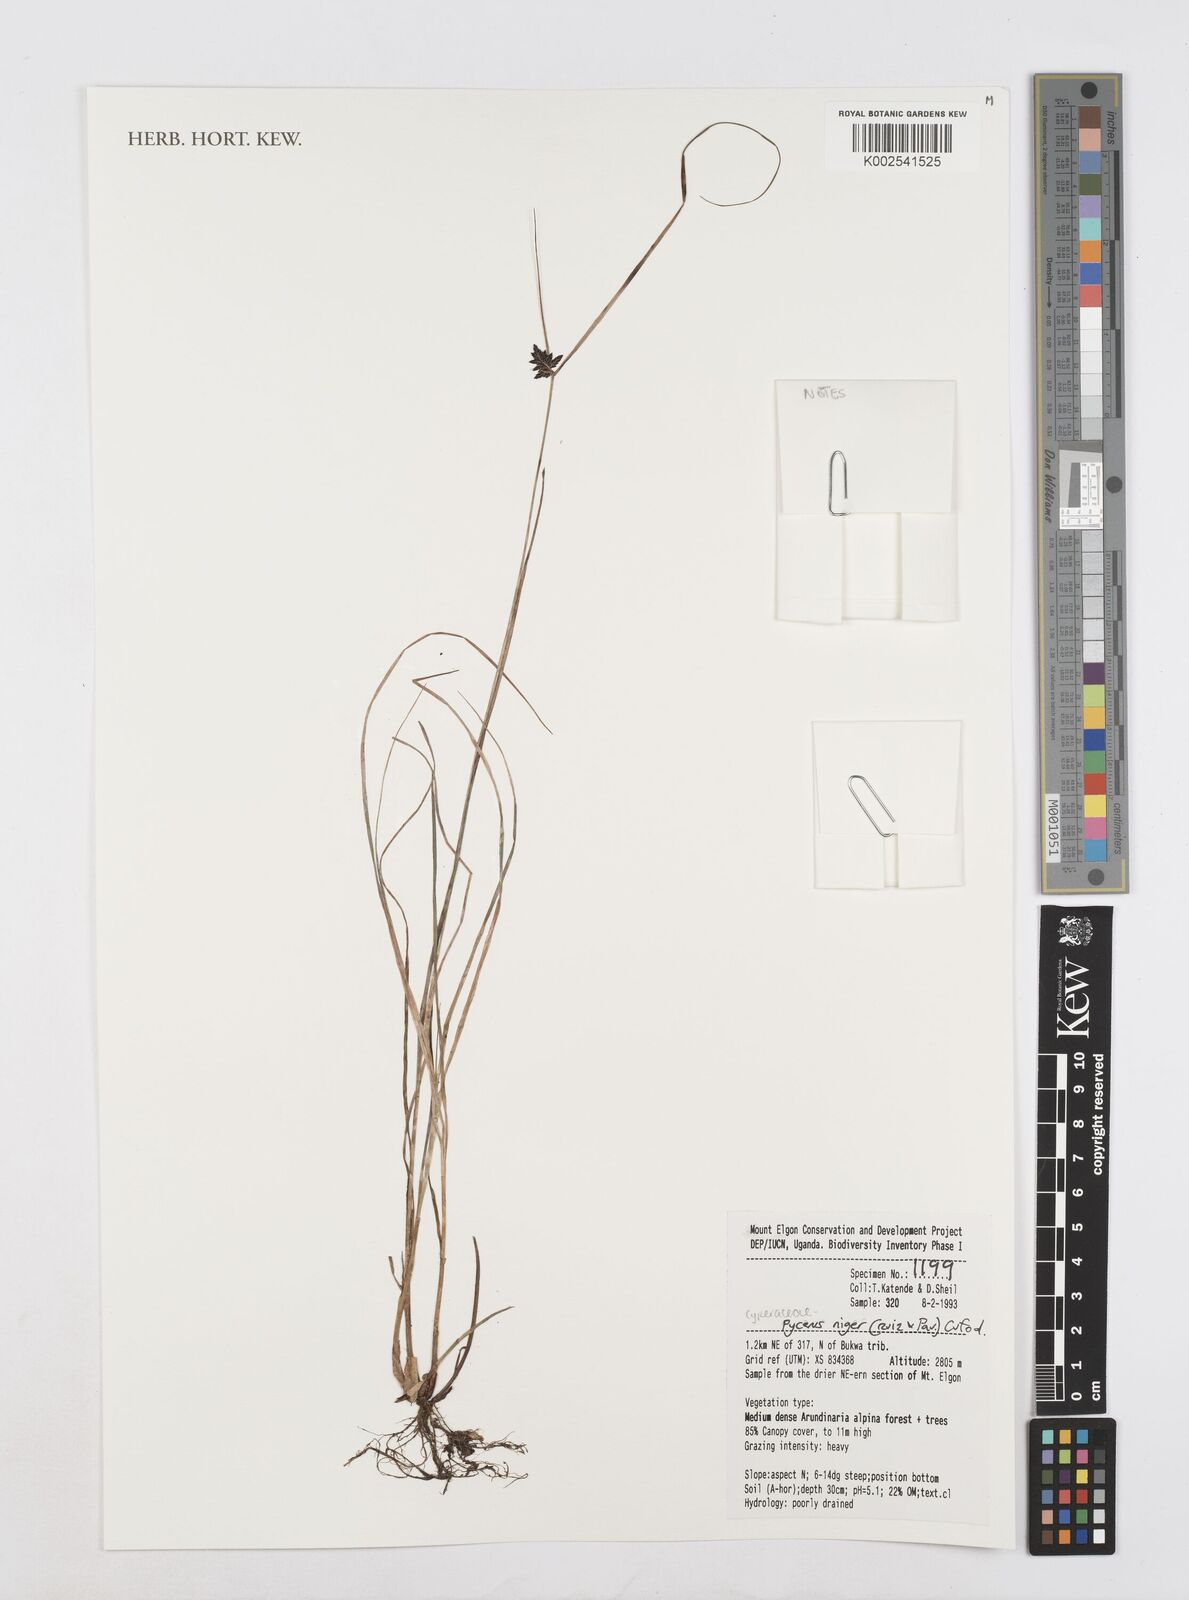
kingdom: Plantae
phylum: Tracheophyta
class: Liliopsida
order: Poales
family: Cyperaceae
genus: Cyperus
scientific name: Cyperus melanostachyus
